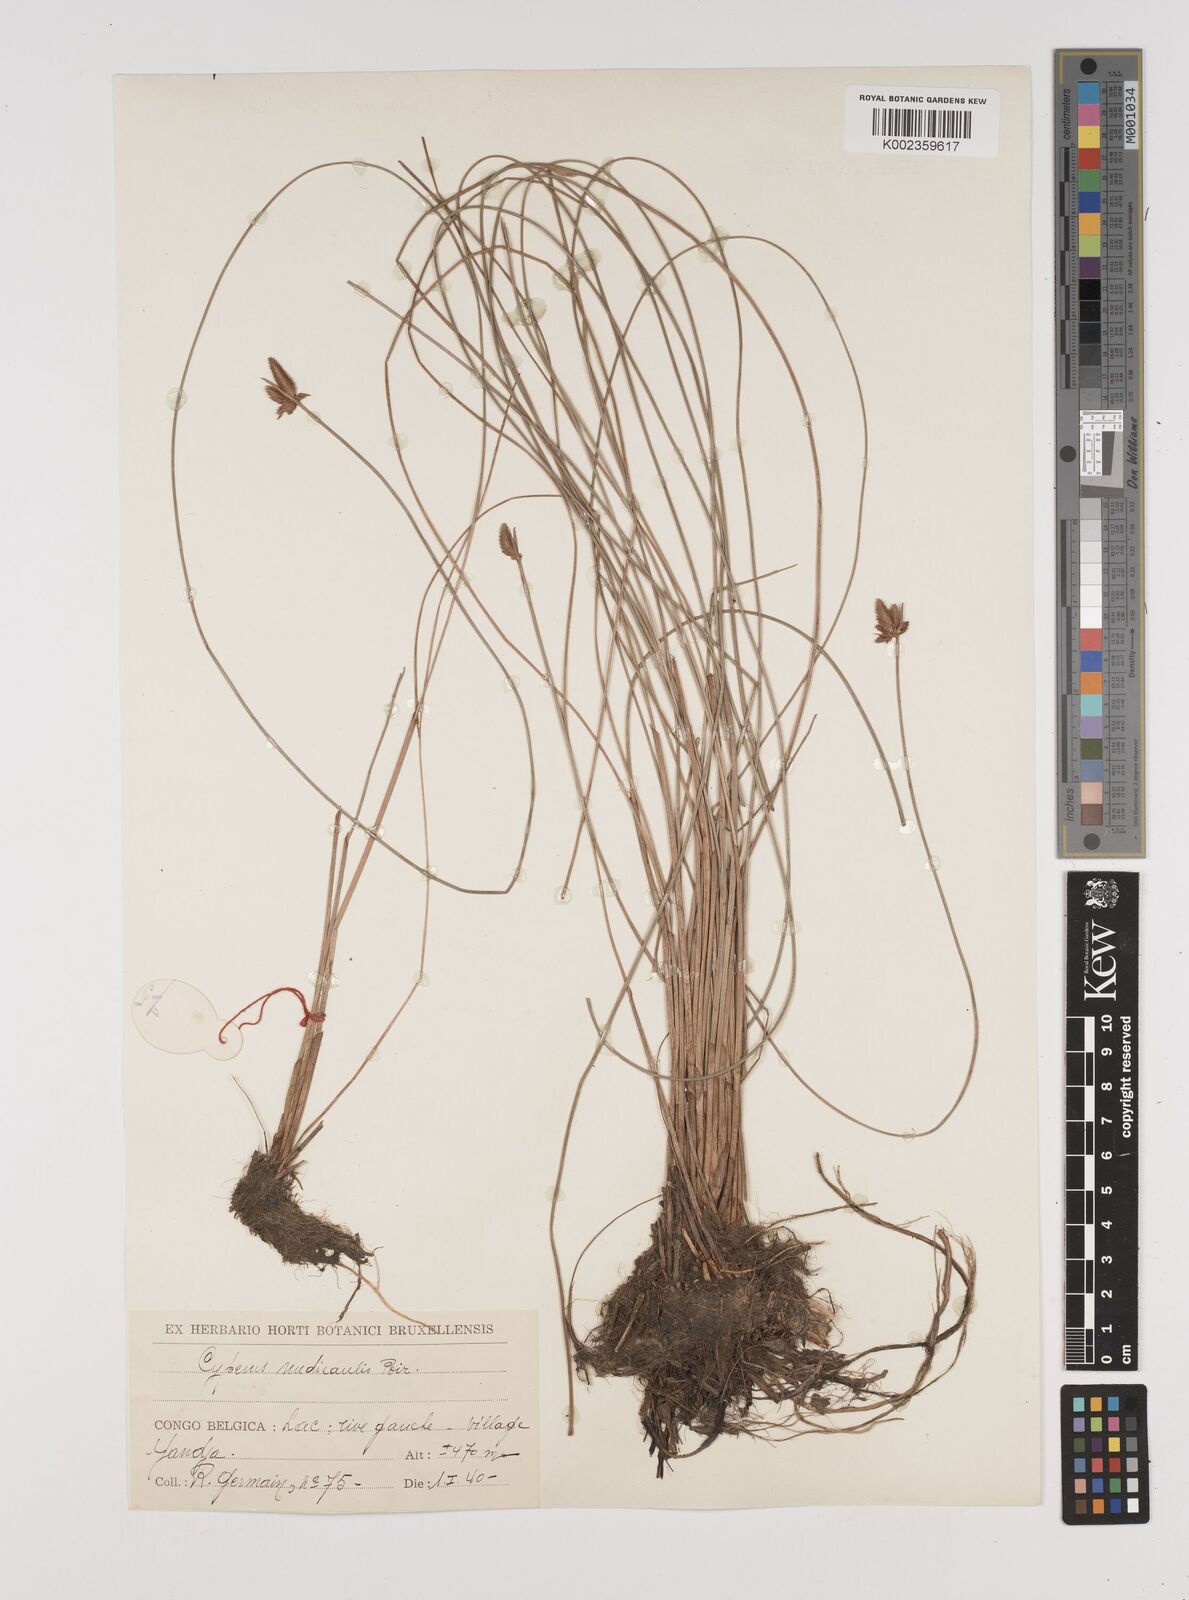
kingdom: Plantae
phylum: Tracheophyta
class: Liliopsida
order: Poales
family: Cyperaceae
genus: Cyperus
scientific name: Cyperus pectinatus
